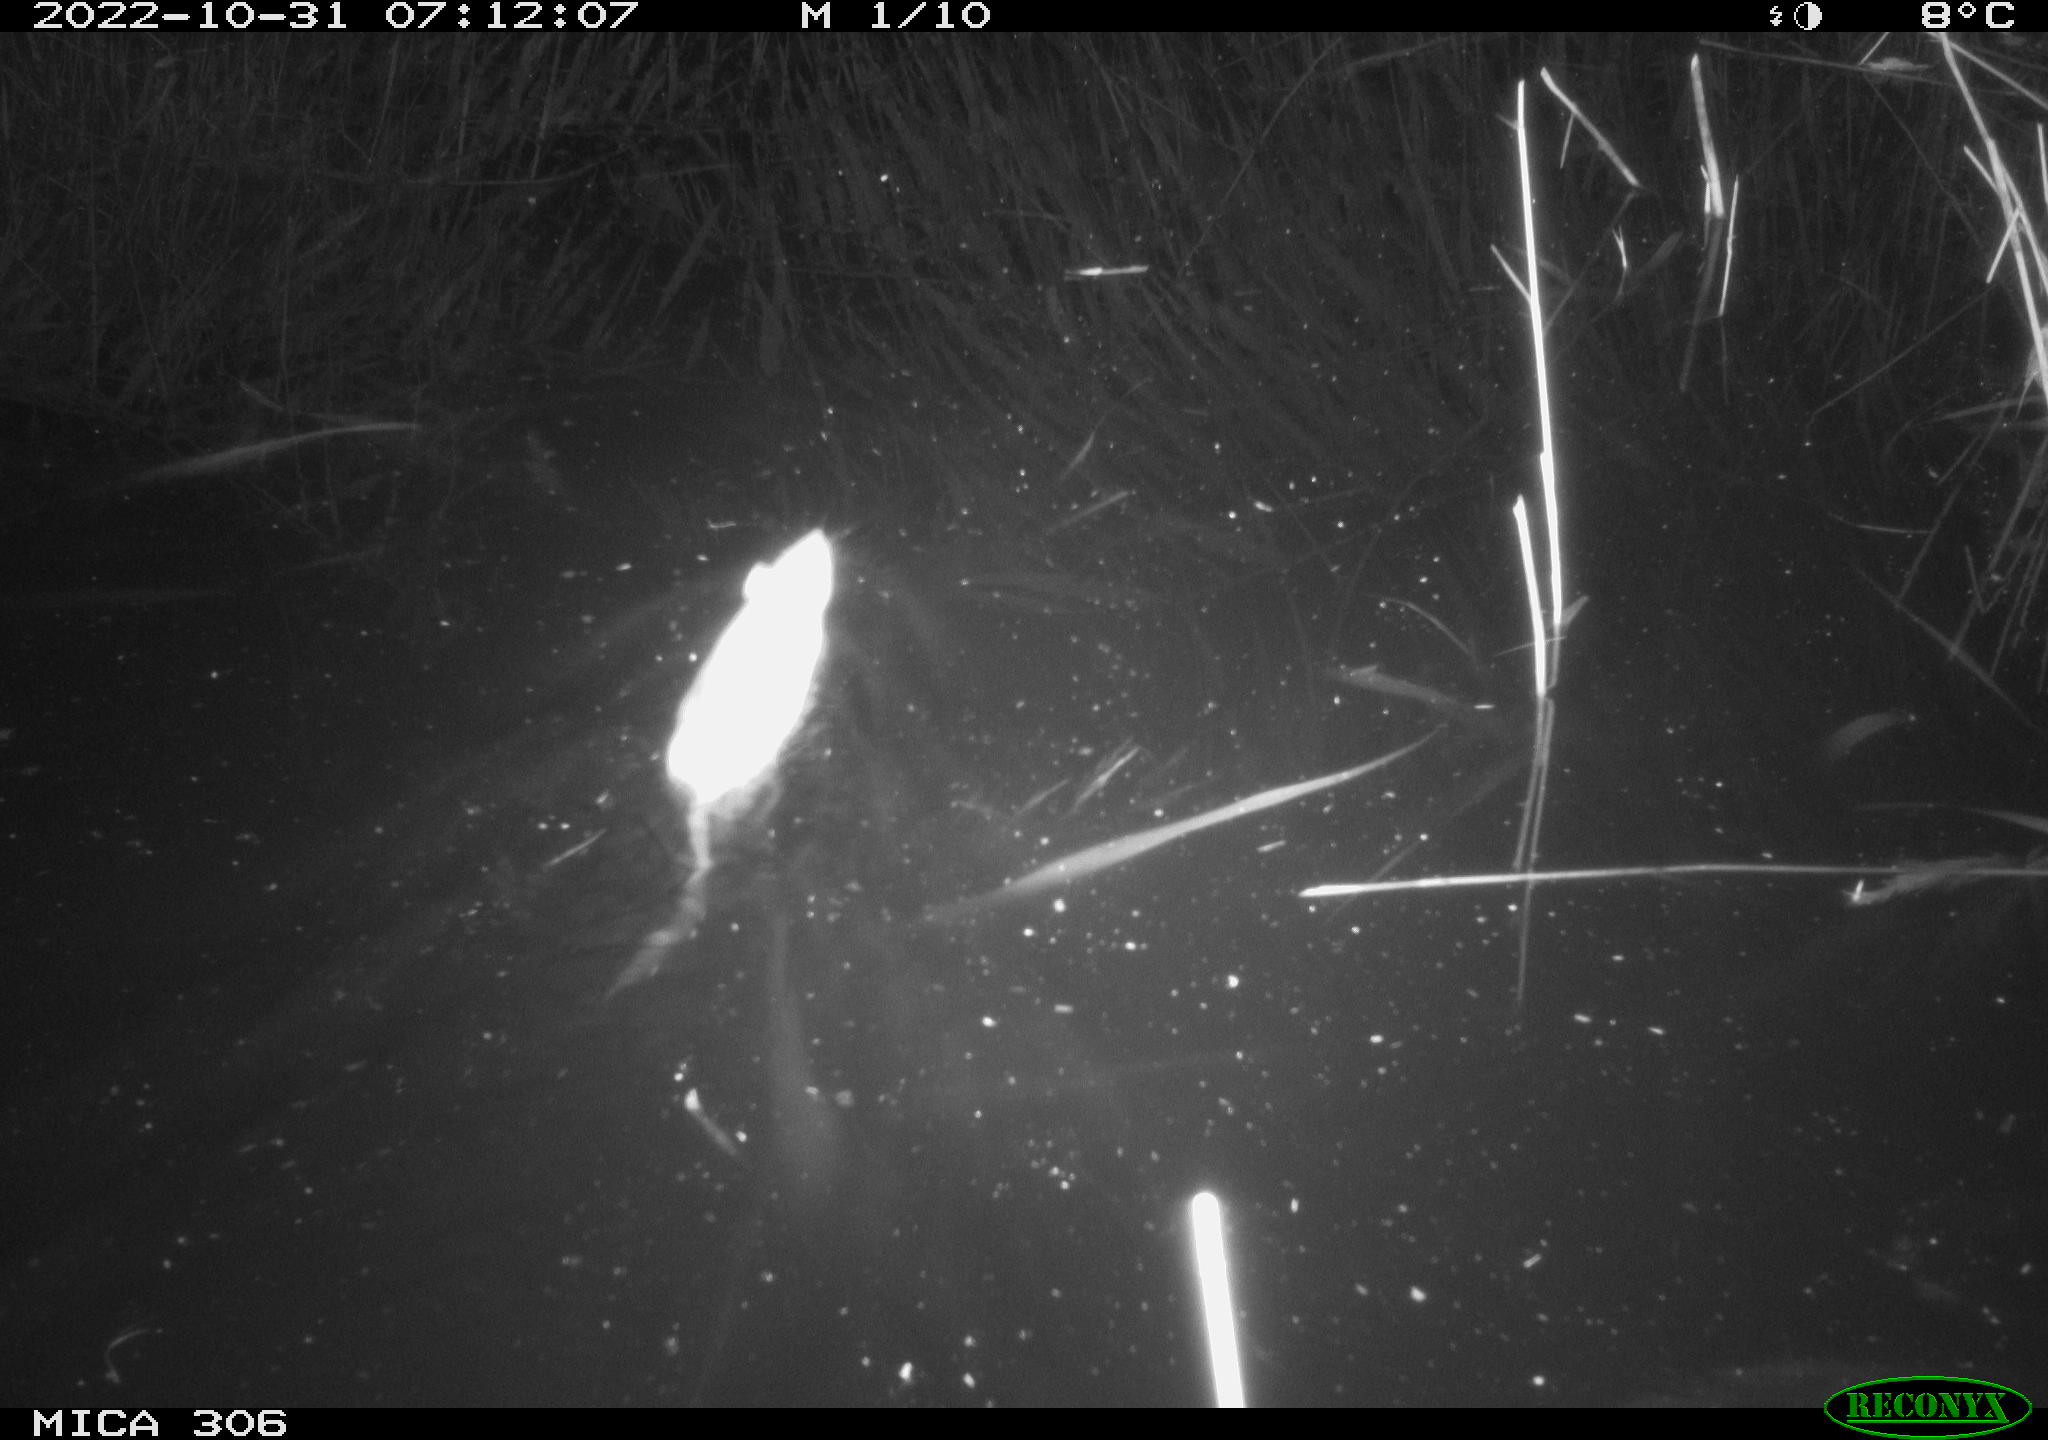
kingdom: Animalia
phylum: Chordata
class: Mammalia
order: Rodentia
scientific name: Rodentia
